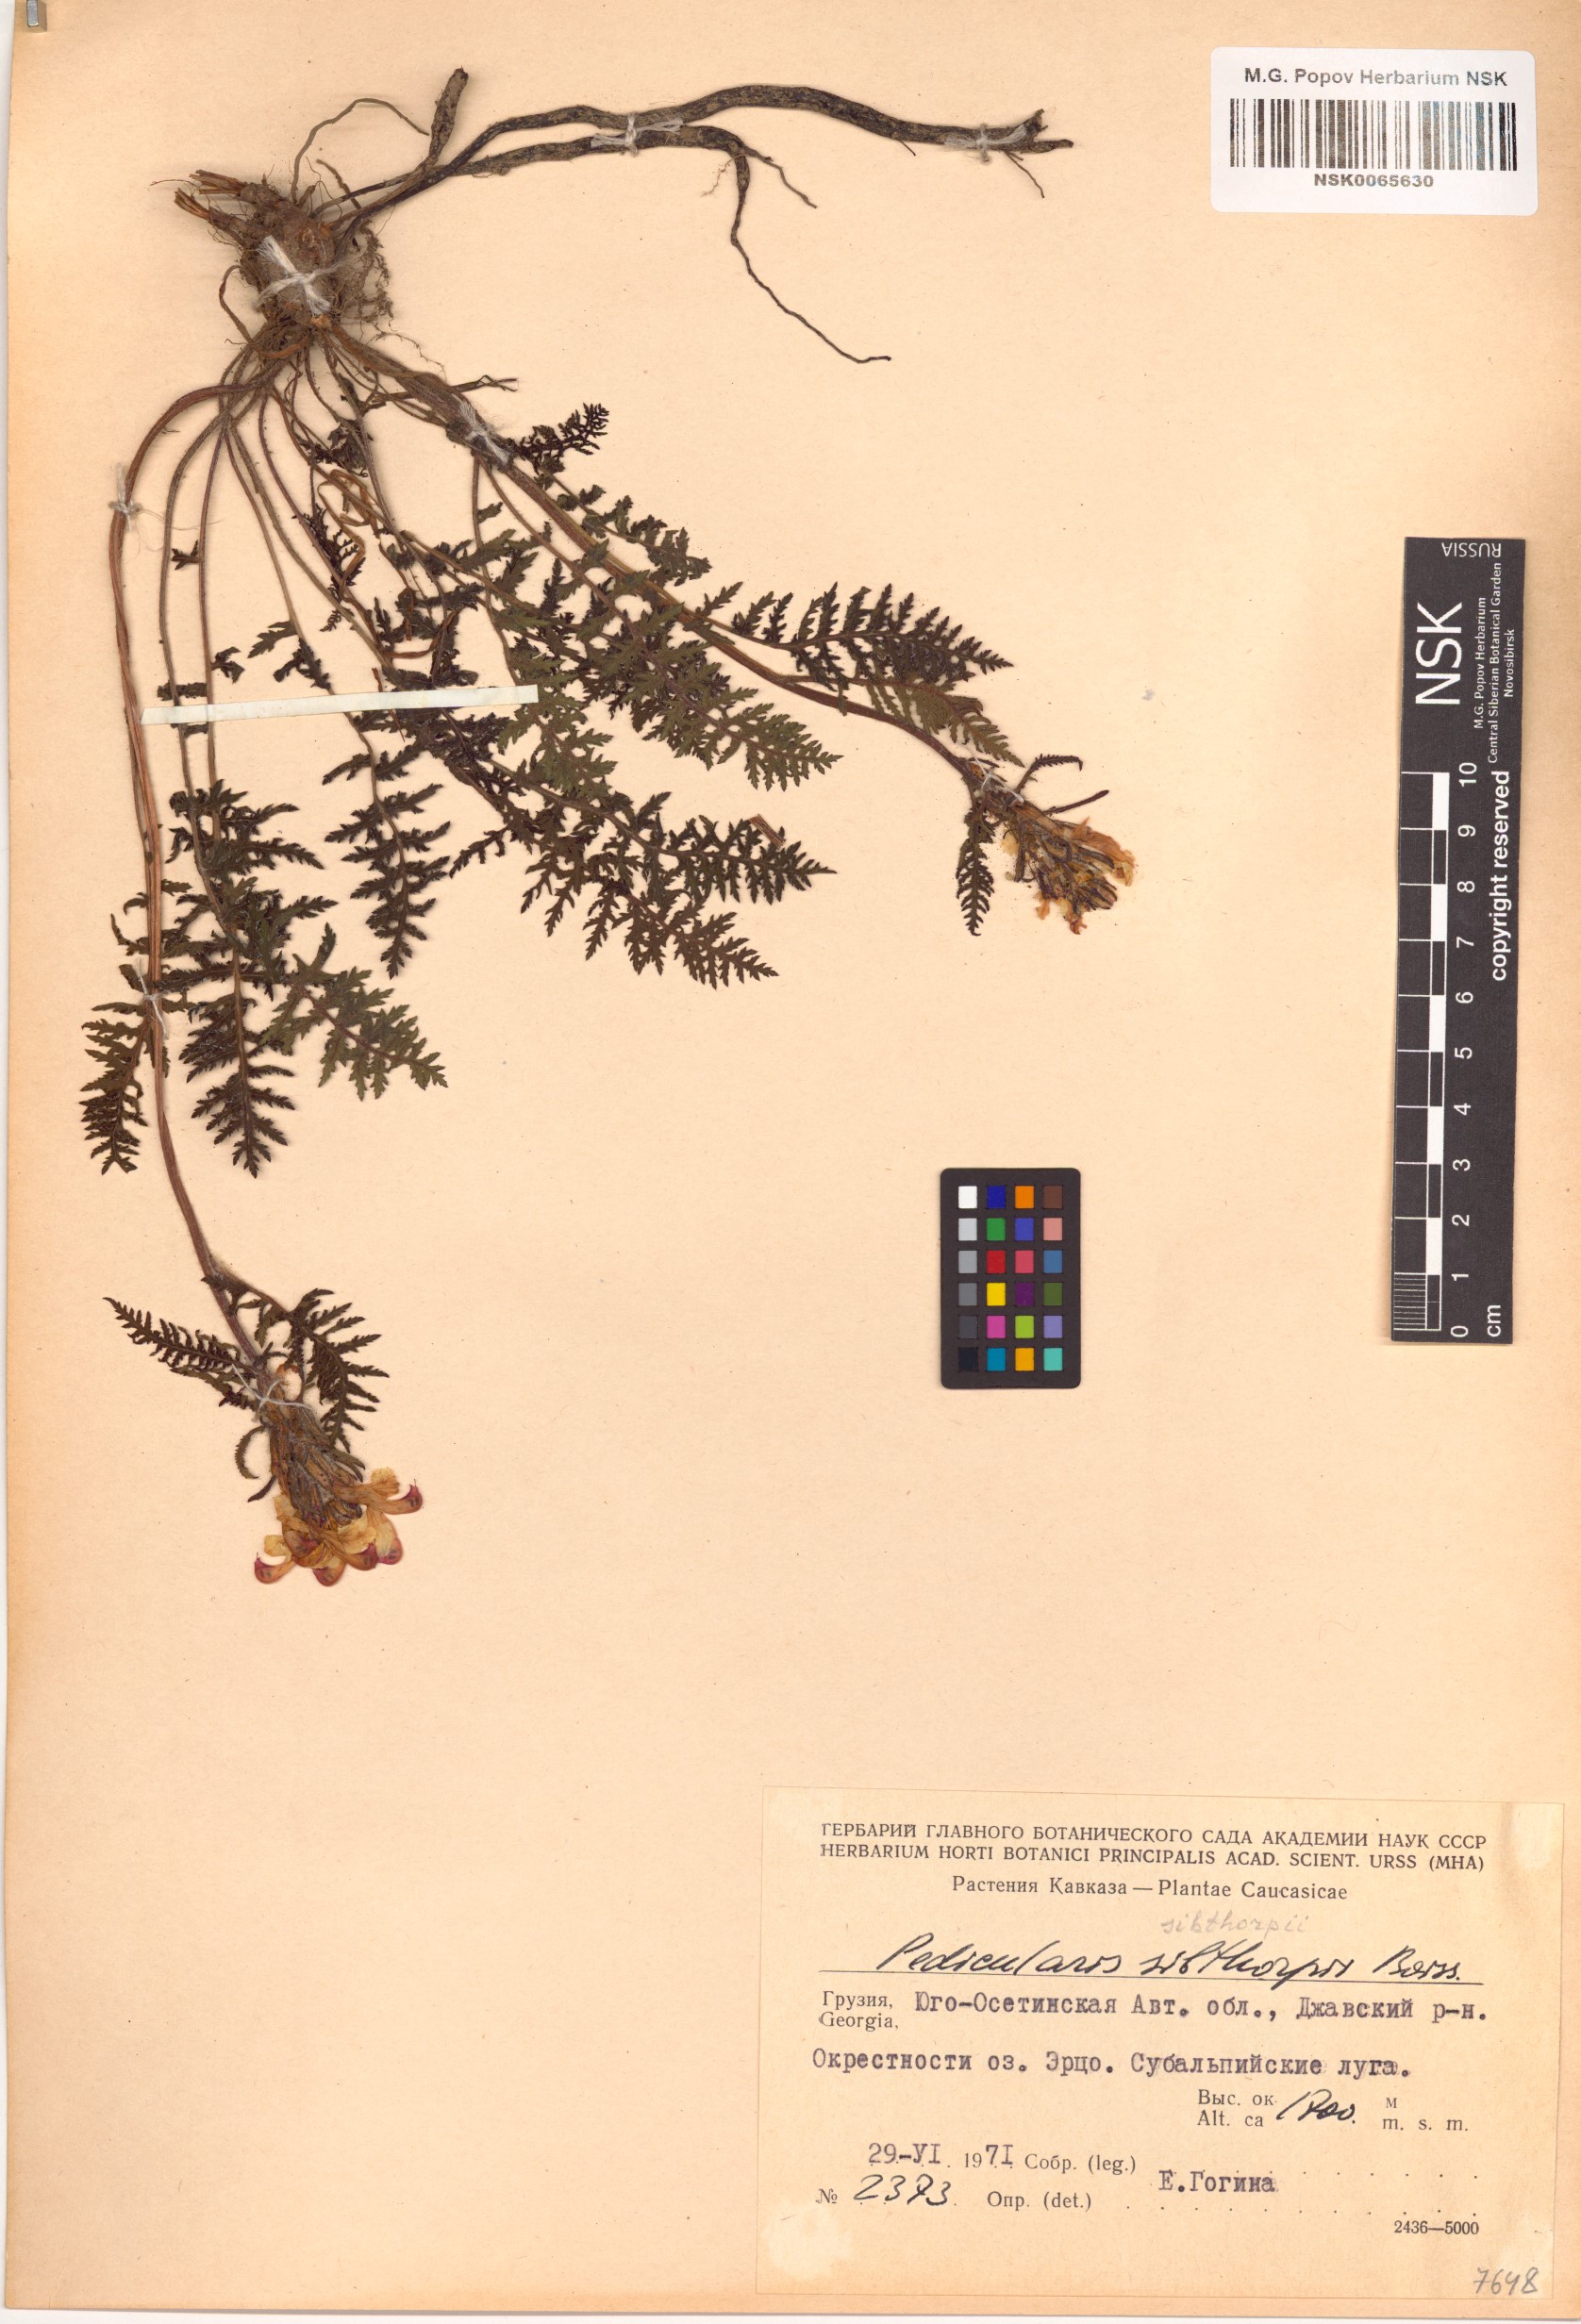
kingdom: Plantae
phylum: Tracheophyta
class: Magnoliopsida
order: Lamiales
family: Orobanchaceae
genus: Pedicularis
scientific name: Pedicularis sibthorpii
